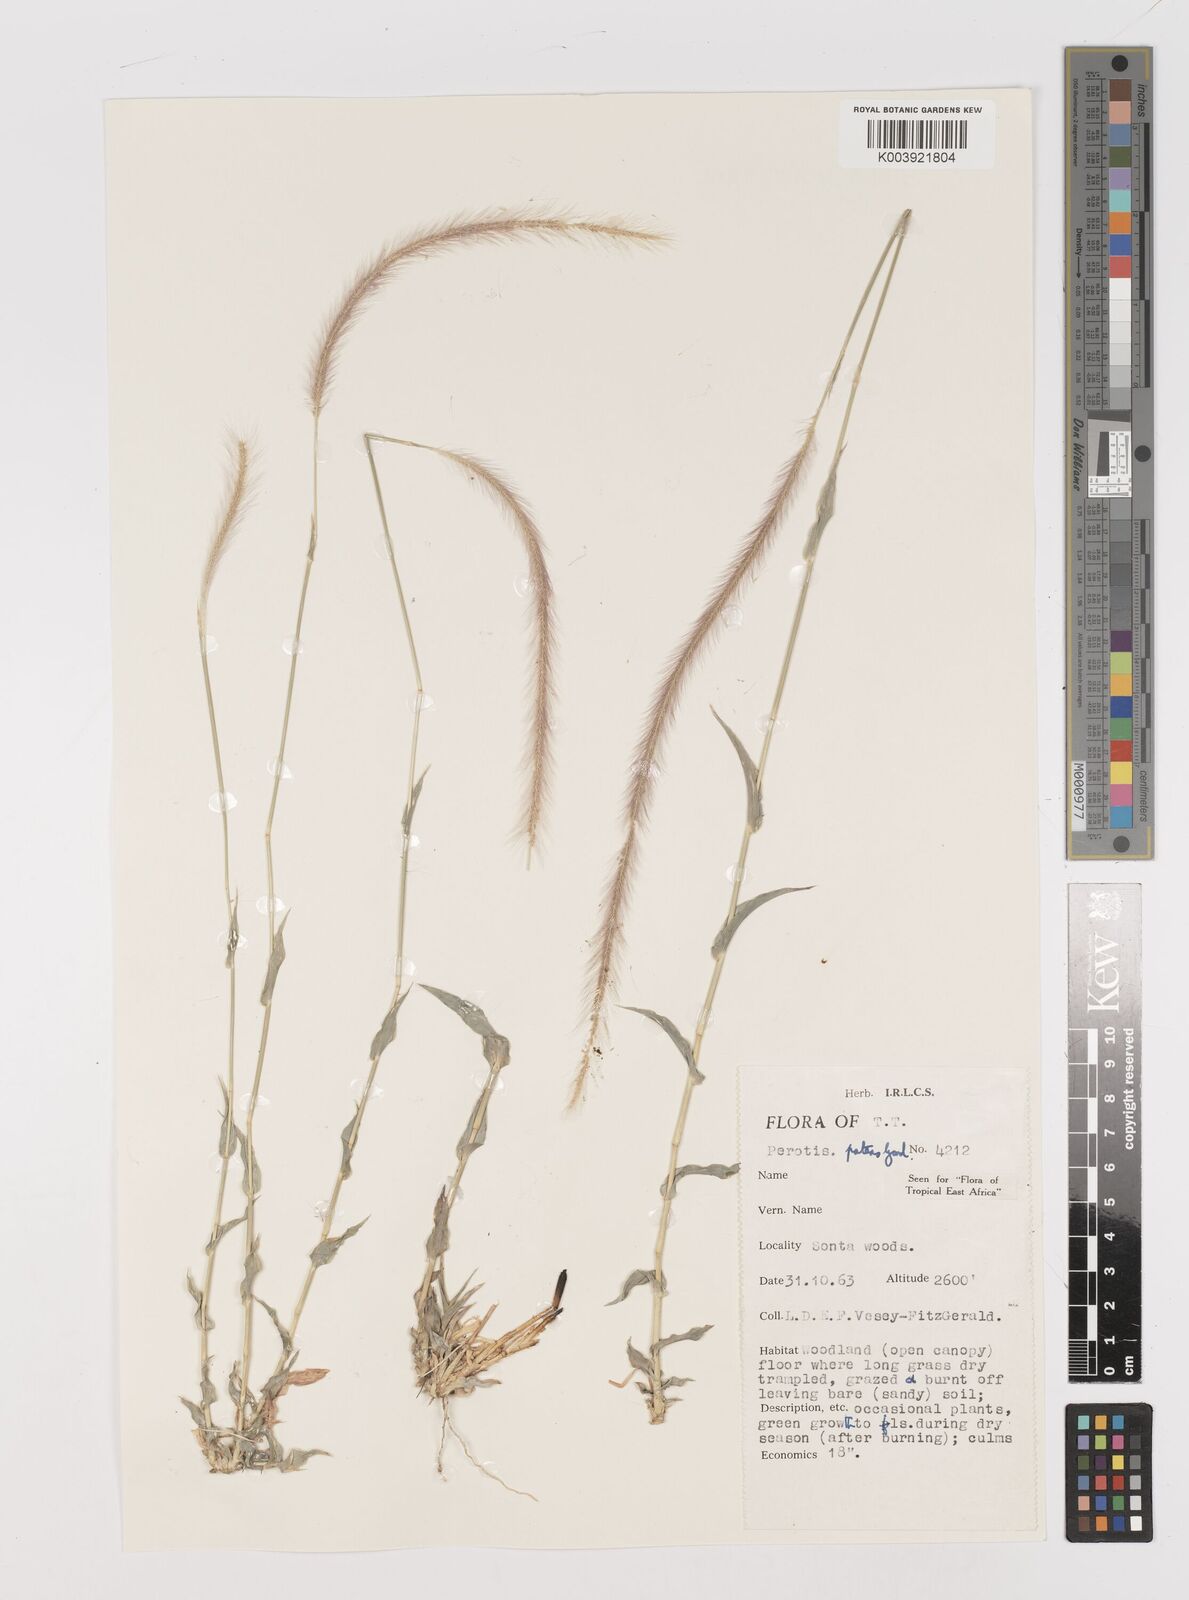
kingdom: Plantae
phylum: Tracheophyta
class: Liliopsida
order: Poales
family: Poaceae
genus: Perotis
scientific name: Perotis patens
